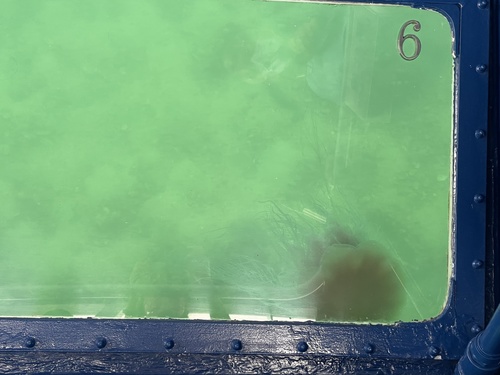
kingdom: Animalia
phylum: Cnidaria
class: Scyphozoa
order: Semaeostomeae
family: Cyaneidae
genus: Cyanea
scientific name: Cyanea nozakii
